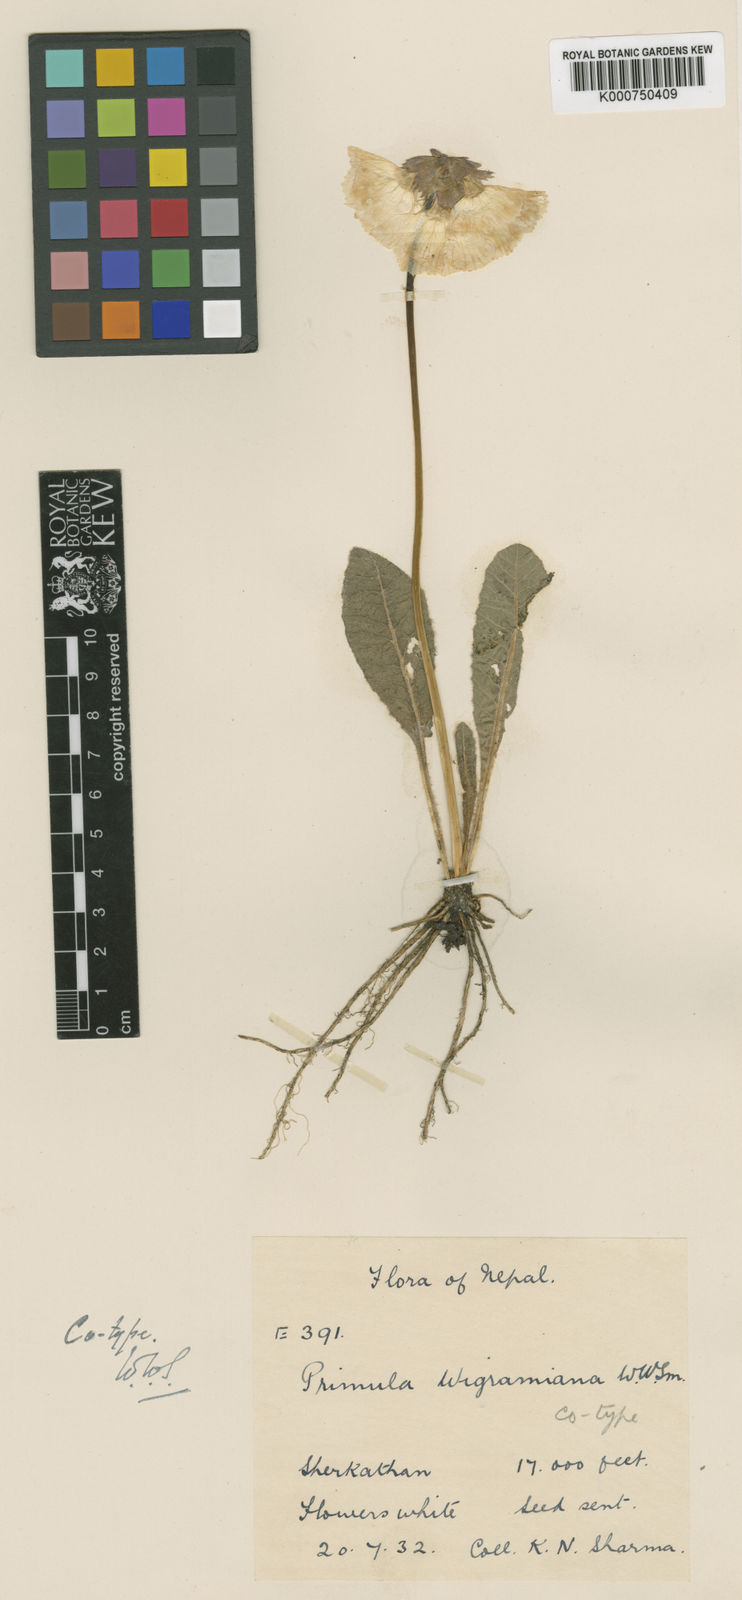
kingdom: Plantae
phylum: Tracheophyta
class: Magnoliopsida
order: Ericales
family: Primulaceae
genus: Primula
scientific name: Primula wigramiana
